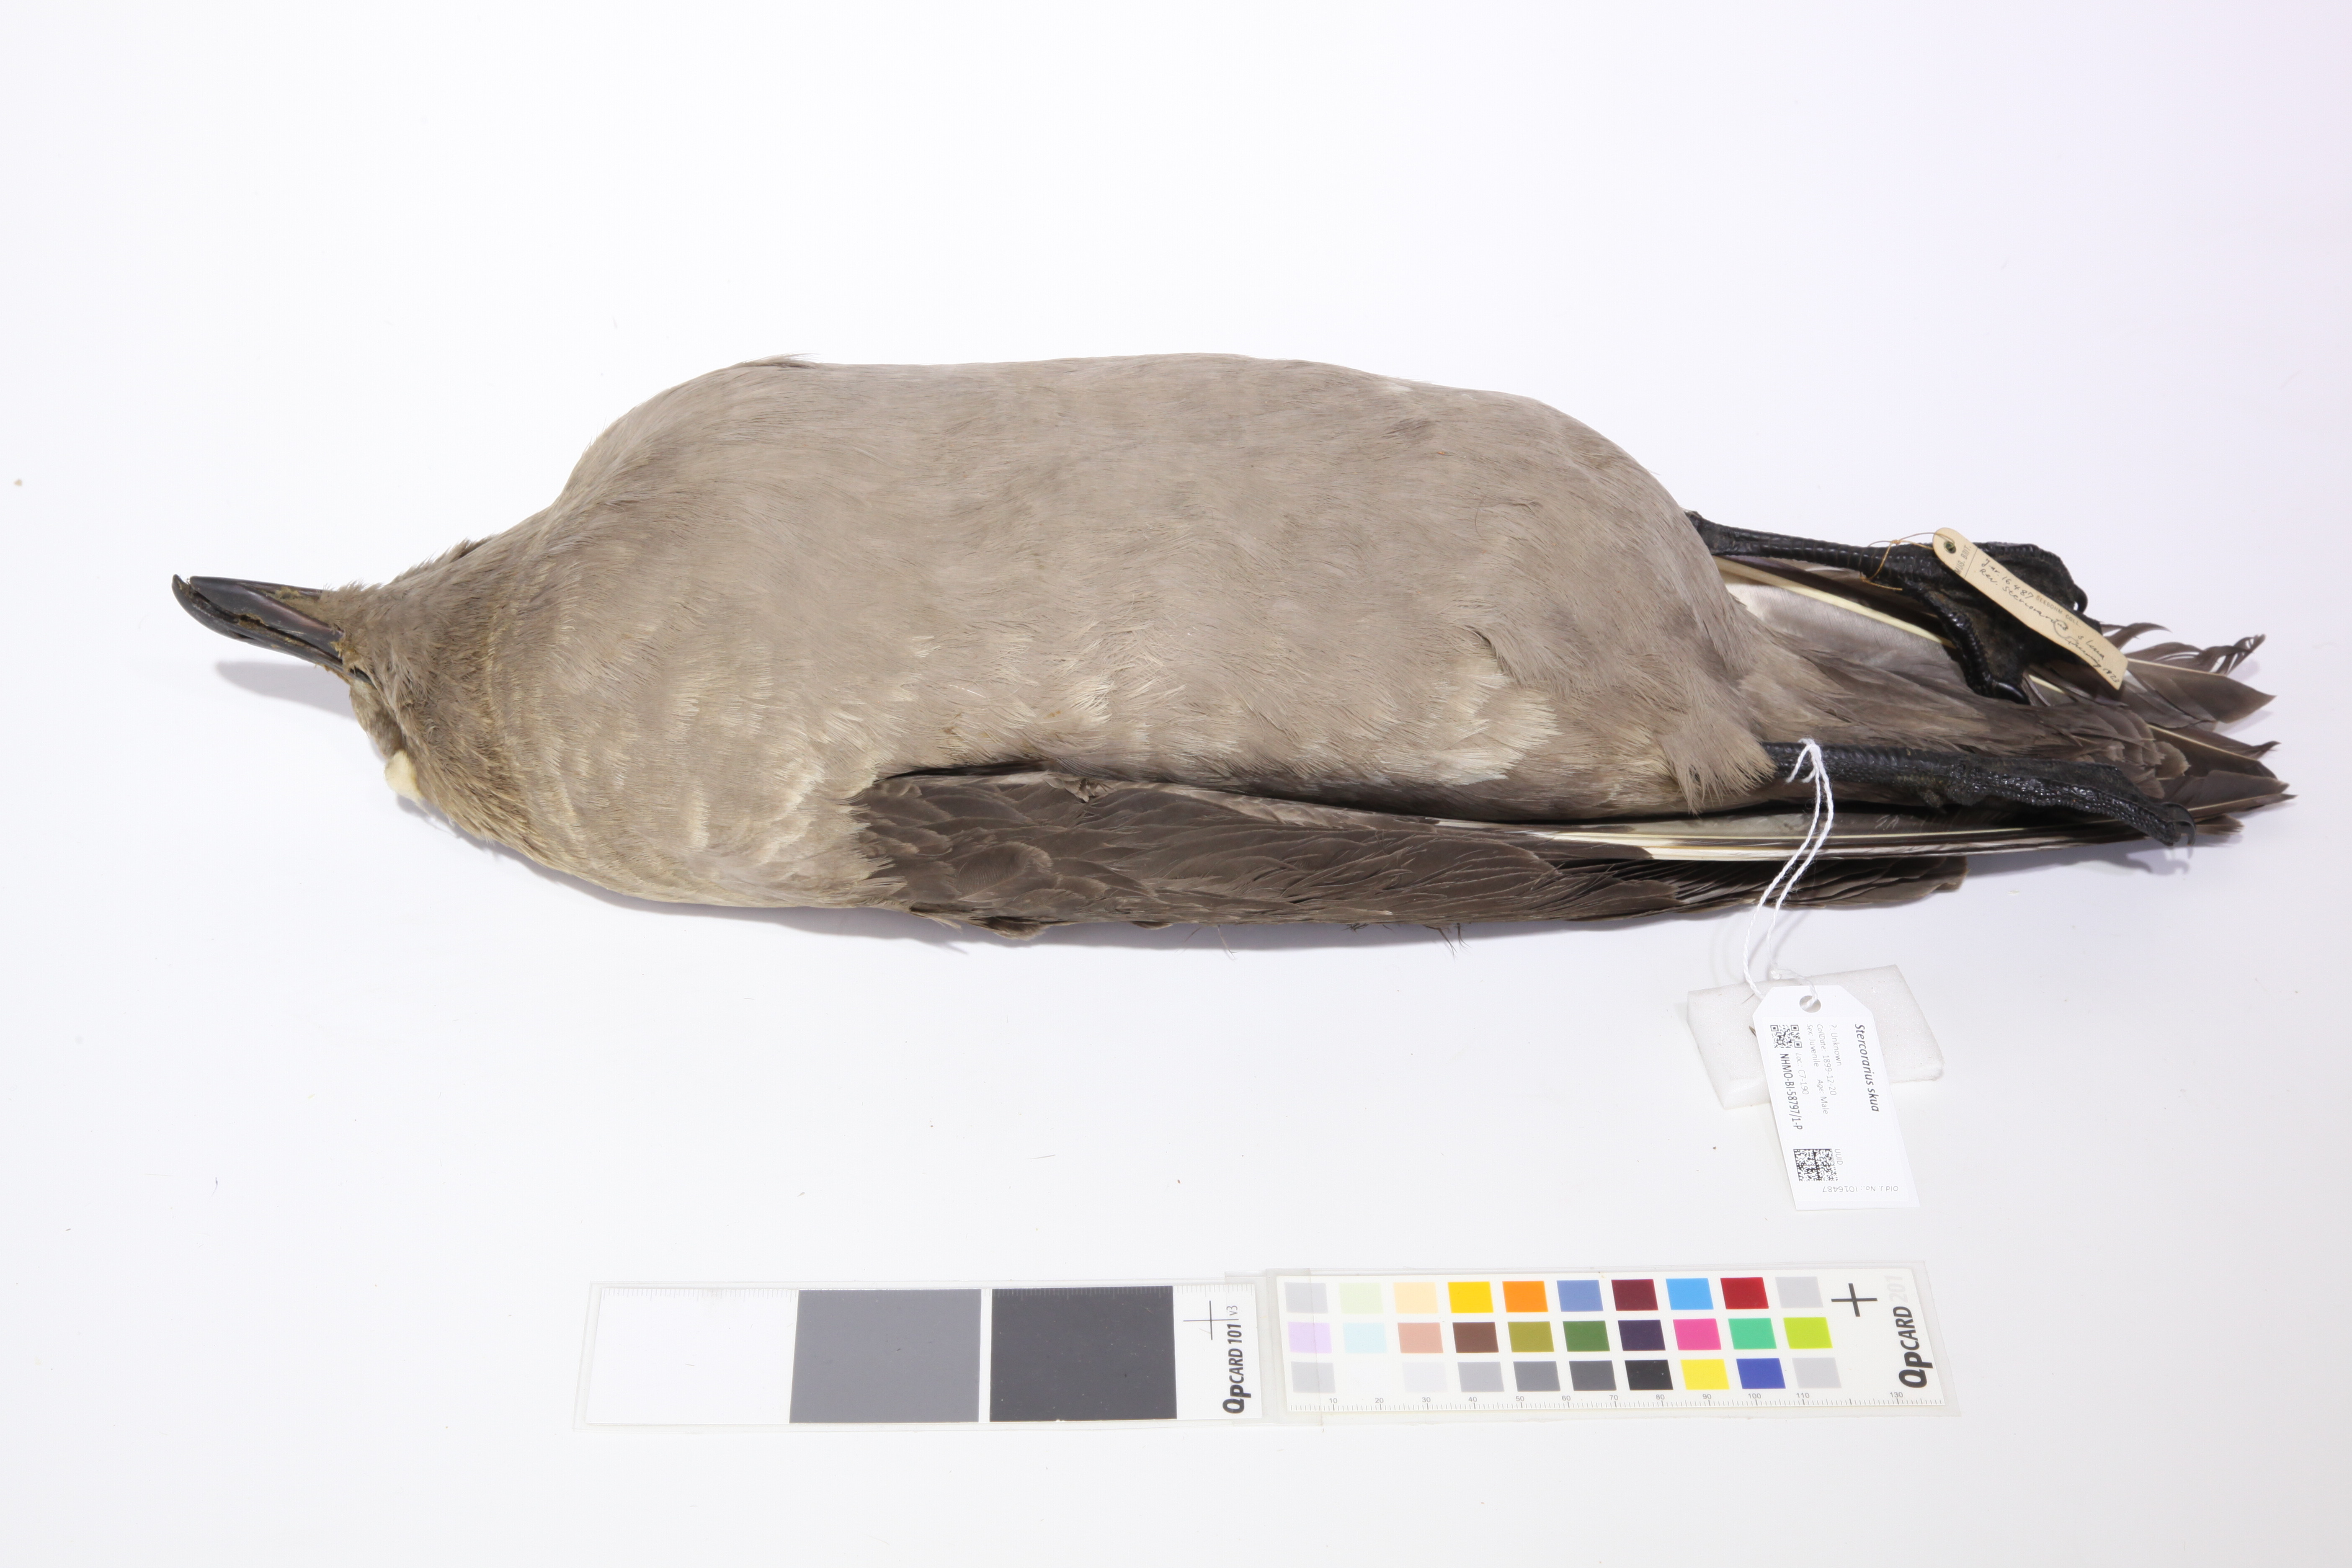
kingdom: Animalia
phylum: Chordata
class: Aves
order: Charadriiformes
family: Stercorariidae
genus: Stercorarius
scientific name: Stercorarius skua
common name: Great skua
